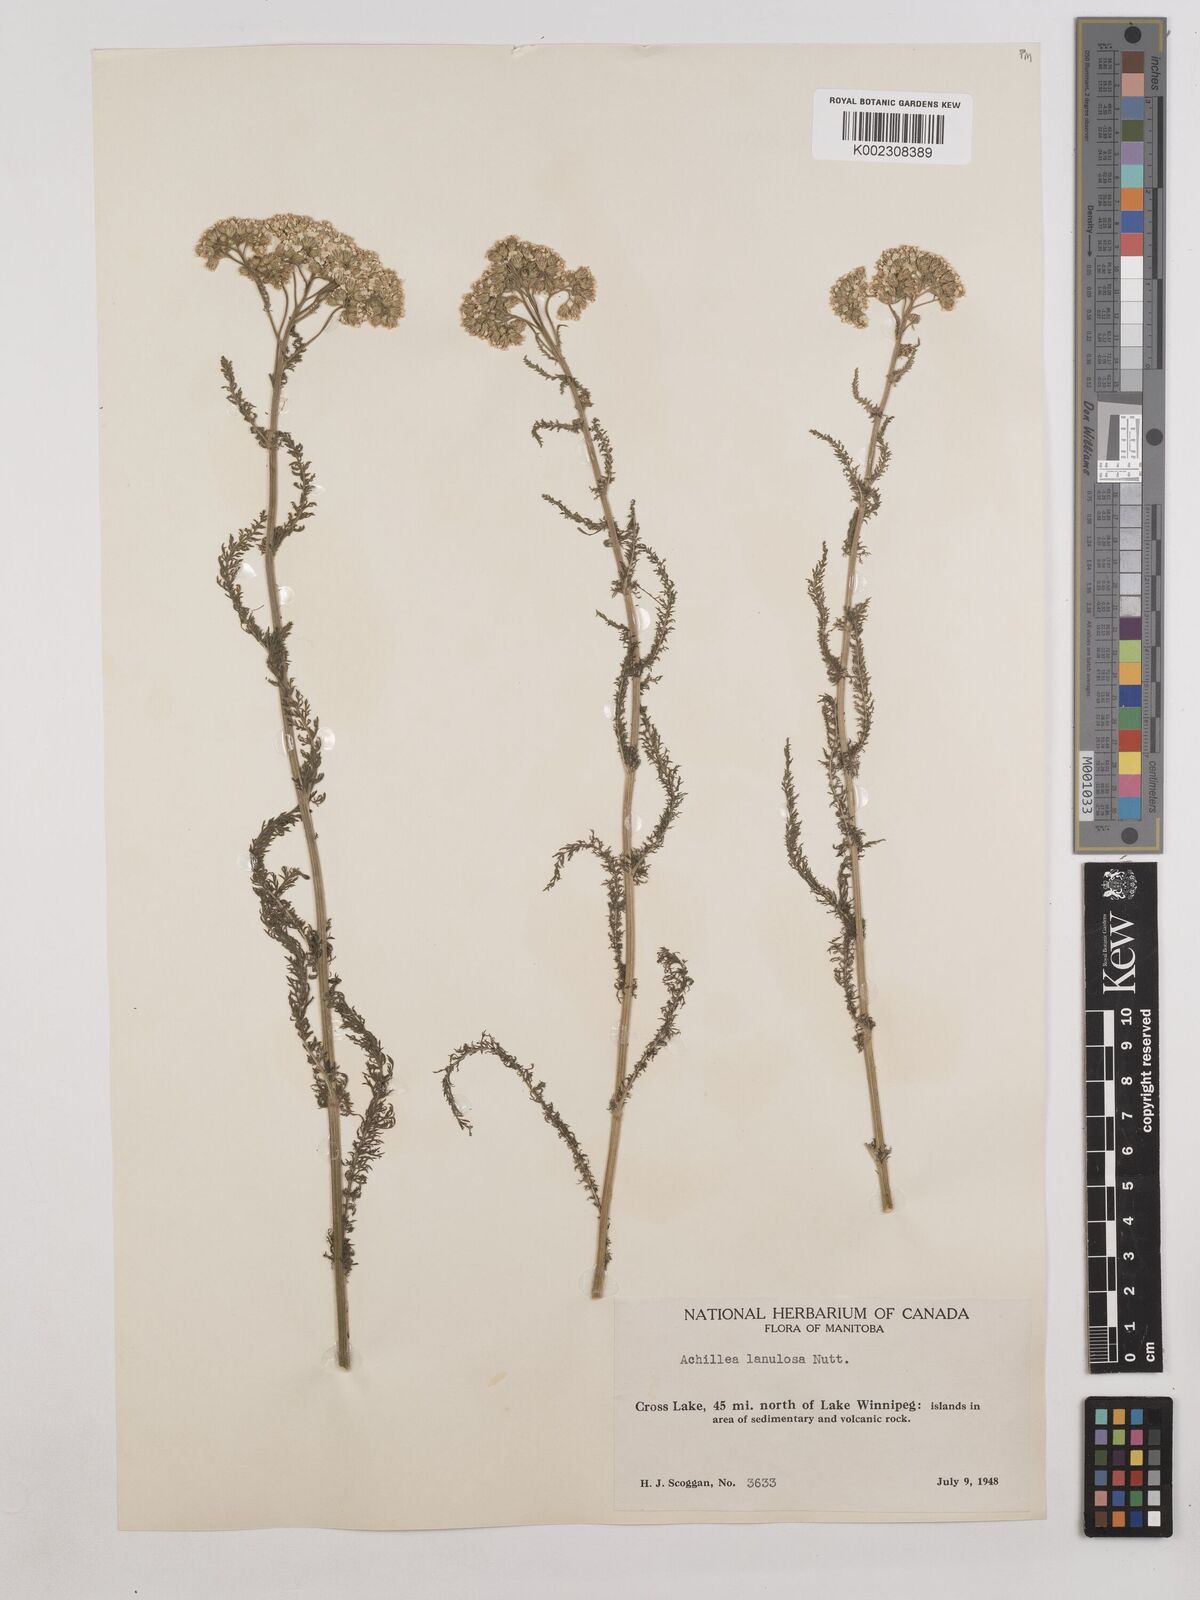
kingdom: Plantae
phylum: Tracheophyta
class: Magnoliopsida
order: Asterales
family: Asteraceae
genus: Achillea
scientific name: Achillea millefolium
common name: Yarrow
